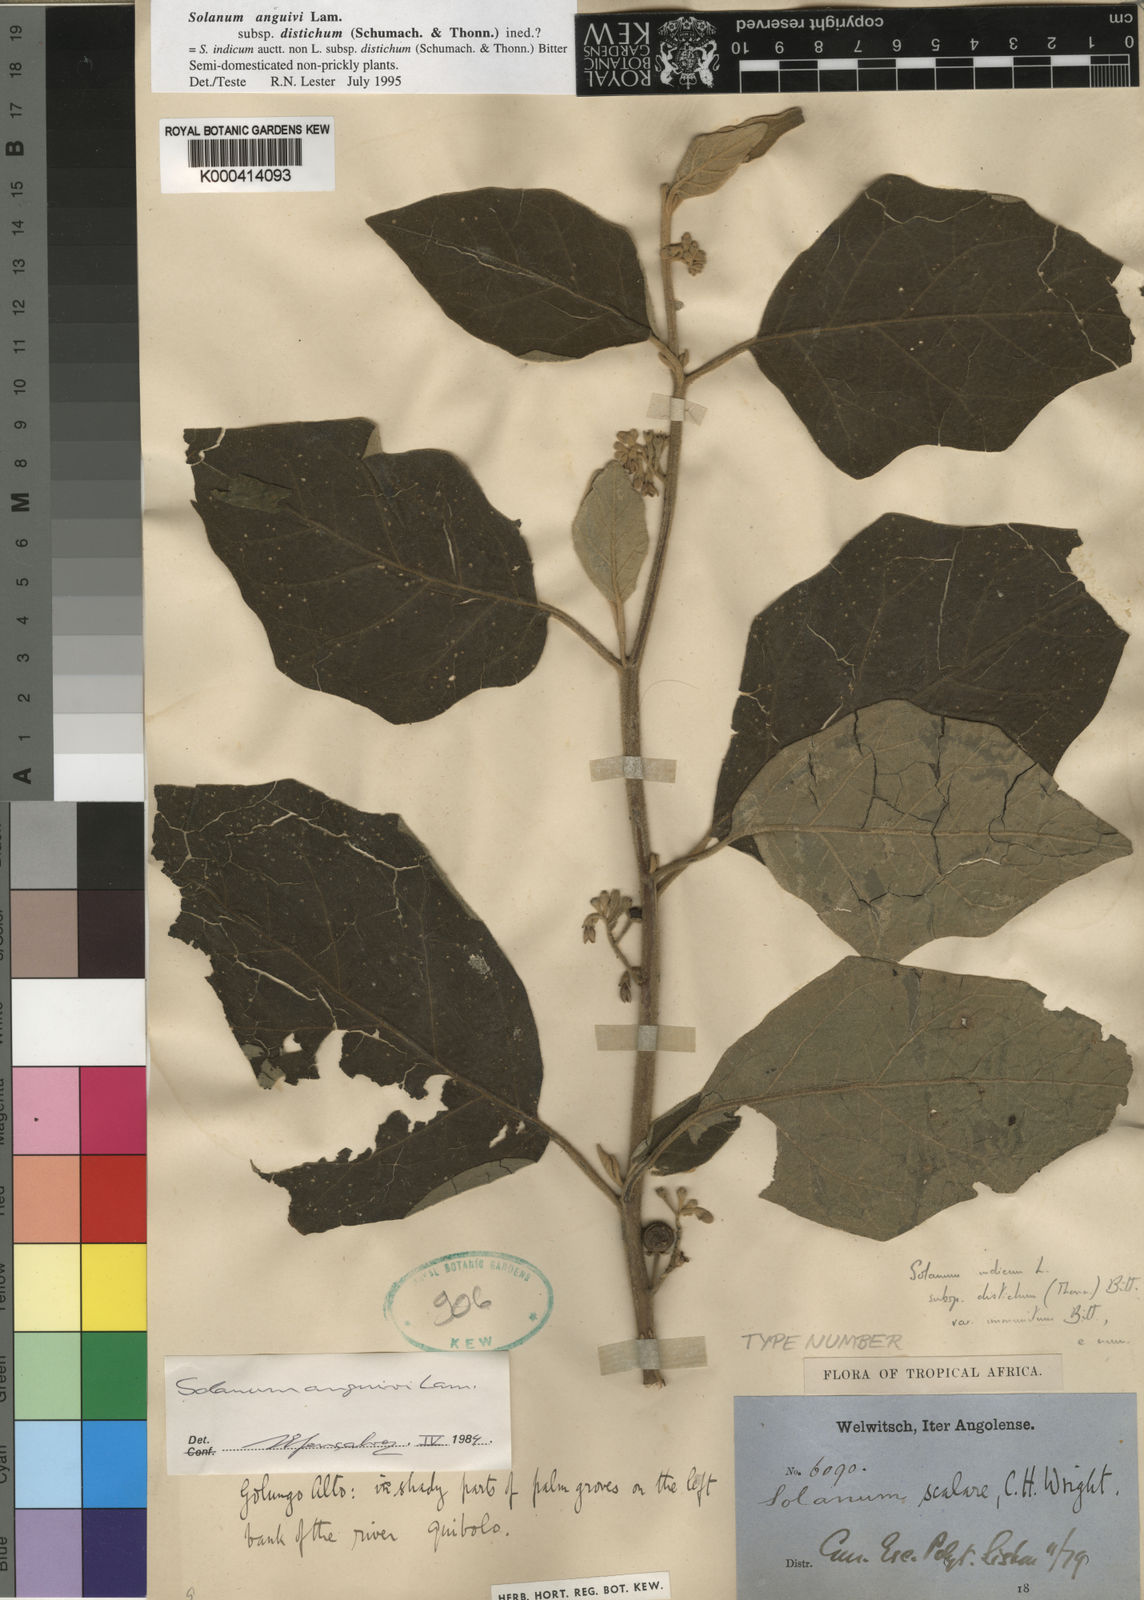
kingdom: Plantae
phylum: Tracheophyta
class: Magnoliopsida
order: Solanales
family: Solanaceae
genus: Solanum
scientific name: Solanum anguivi
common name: Forest bitterberry
